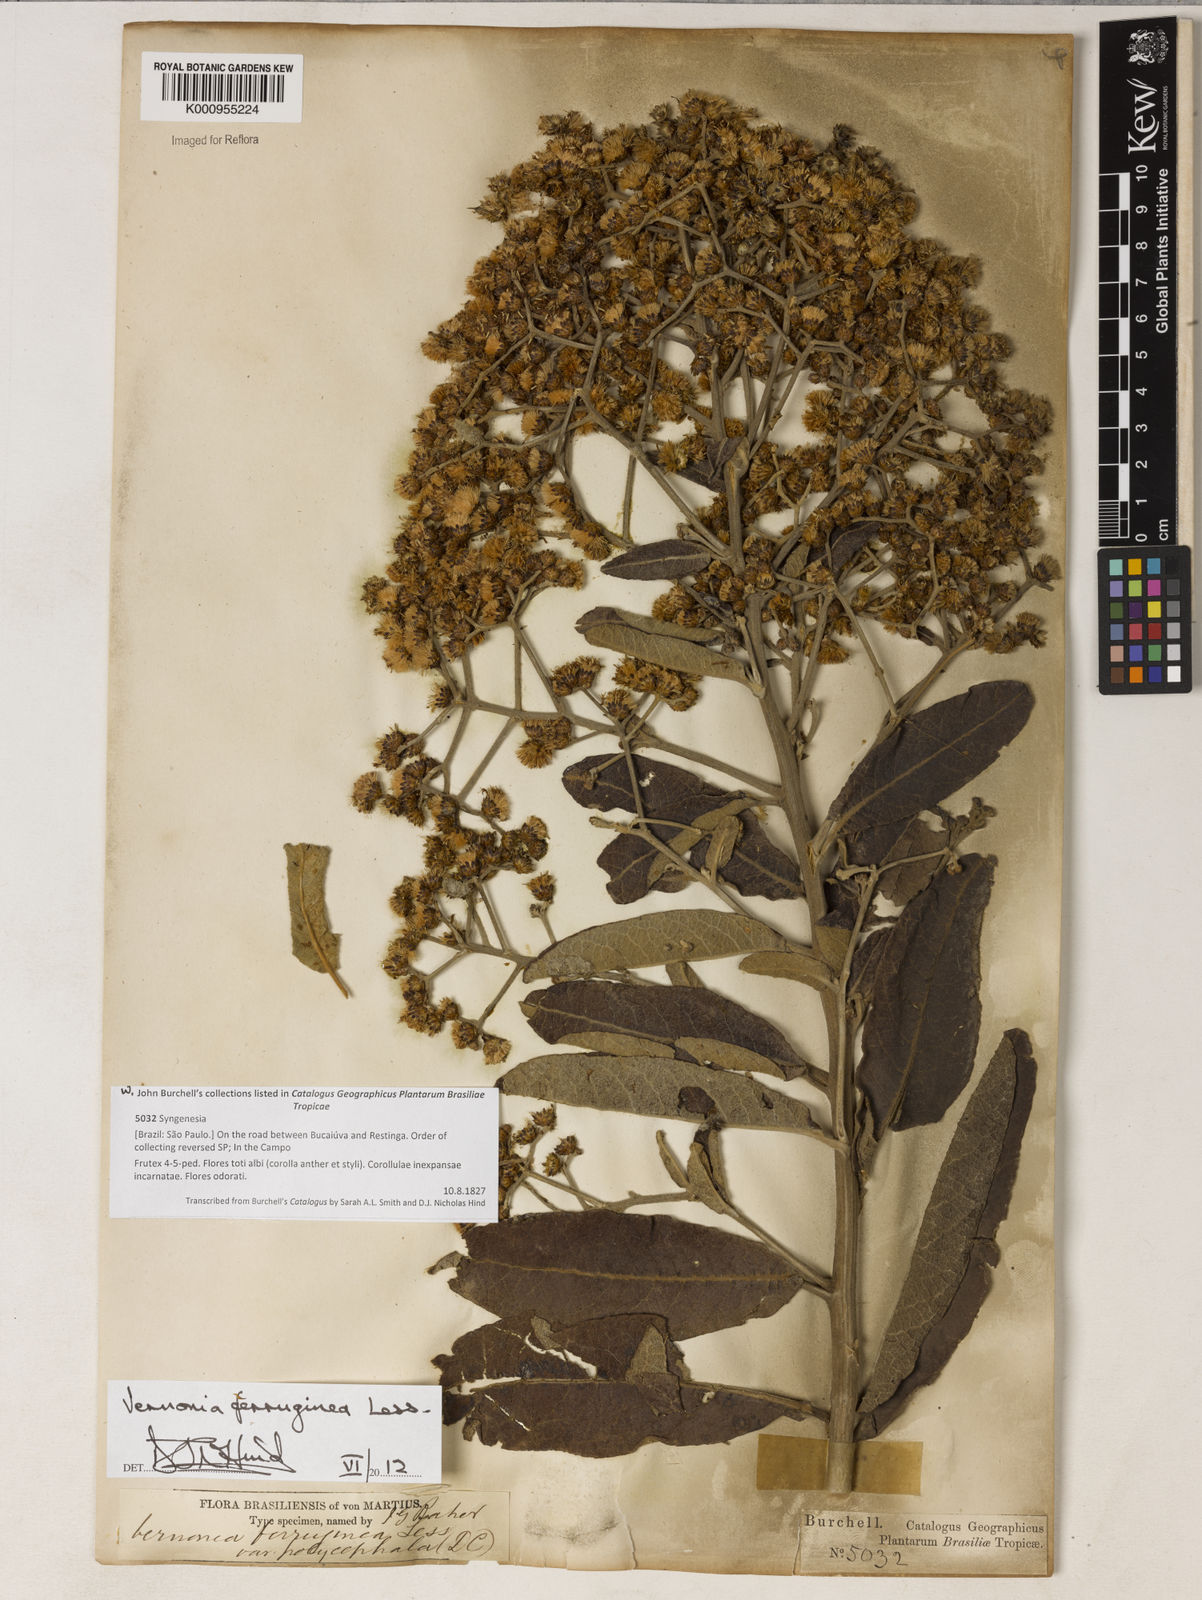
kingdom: Plantae
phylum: Tracheophyta
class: Magnoliopsida
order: Asterales
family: Asteraceae
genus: Vernonanthura
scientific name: Vernonanthura ferruginea
